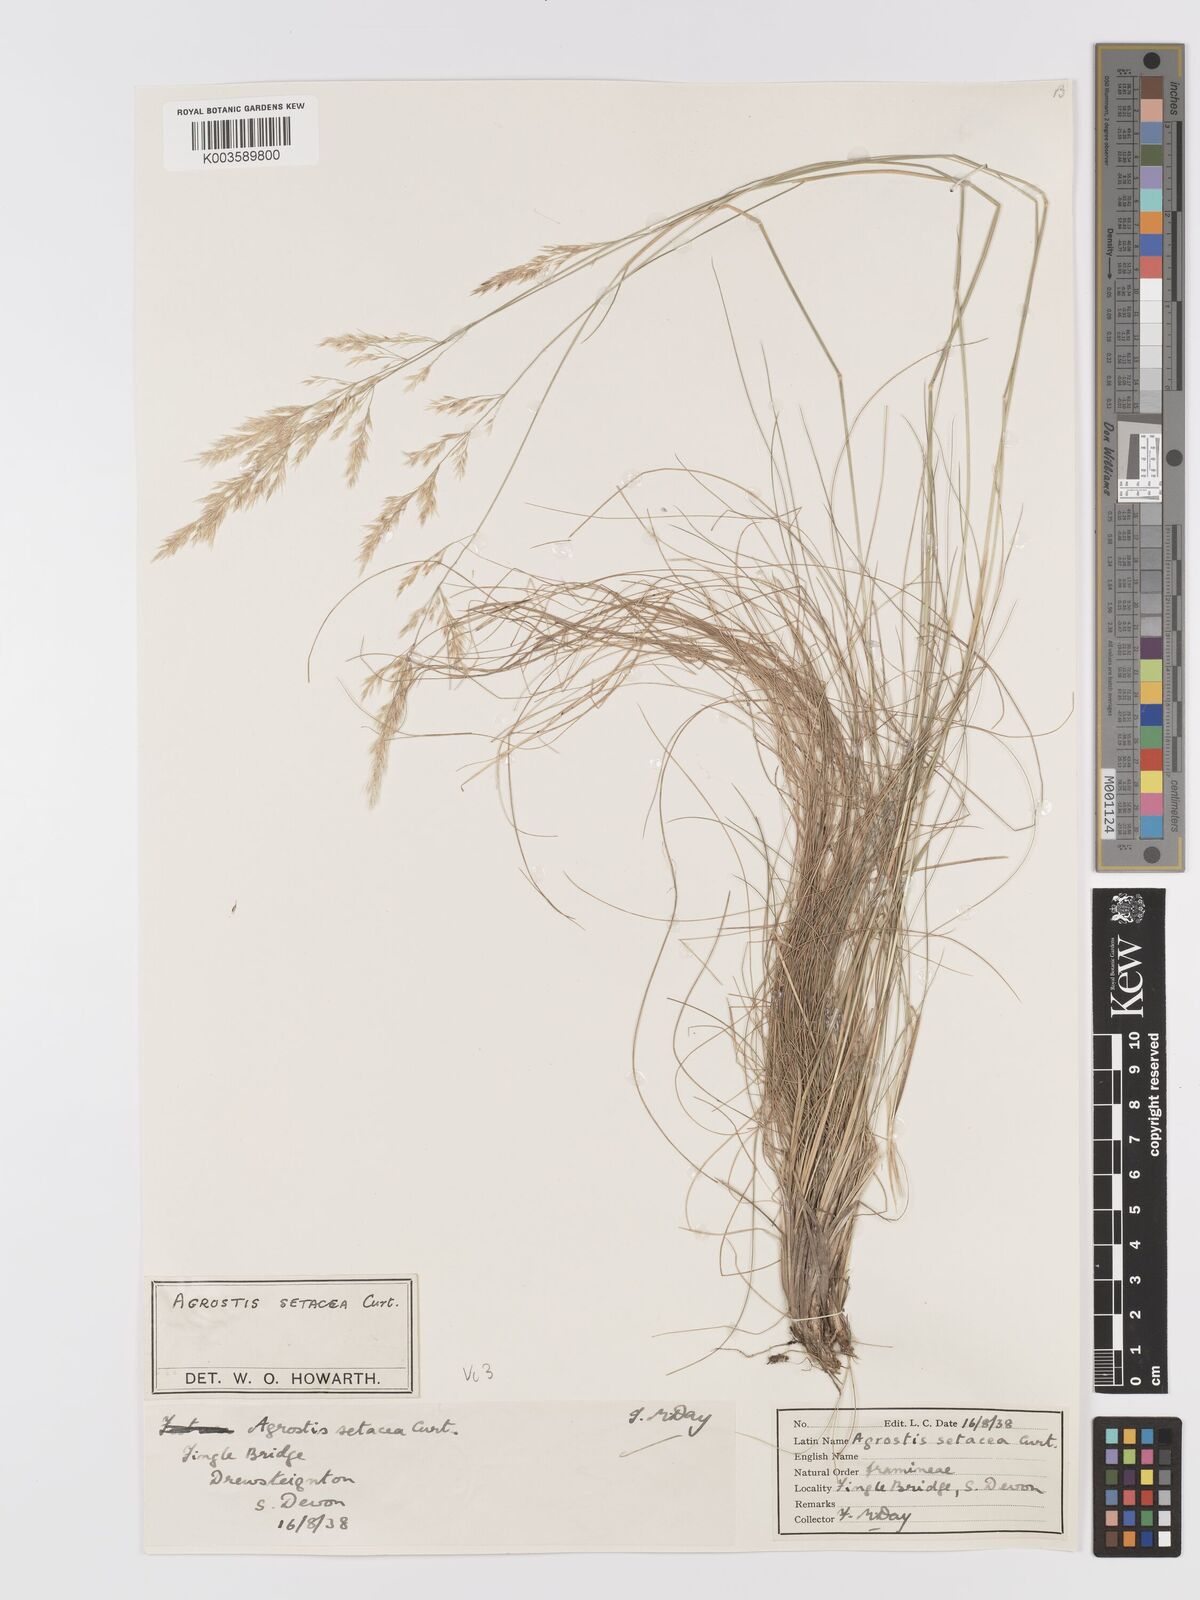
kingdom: Plantae
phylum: Tracheophyta
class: Liliopsida
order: Poales
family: Poaceae
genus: Alpagrostis
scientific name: Alpagrostis setacea
